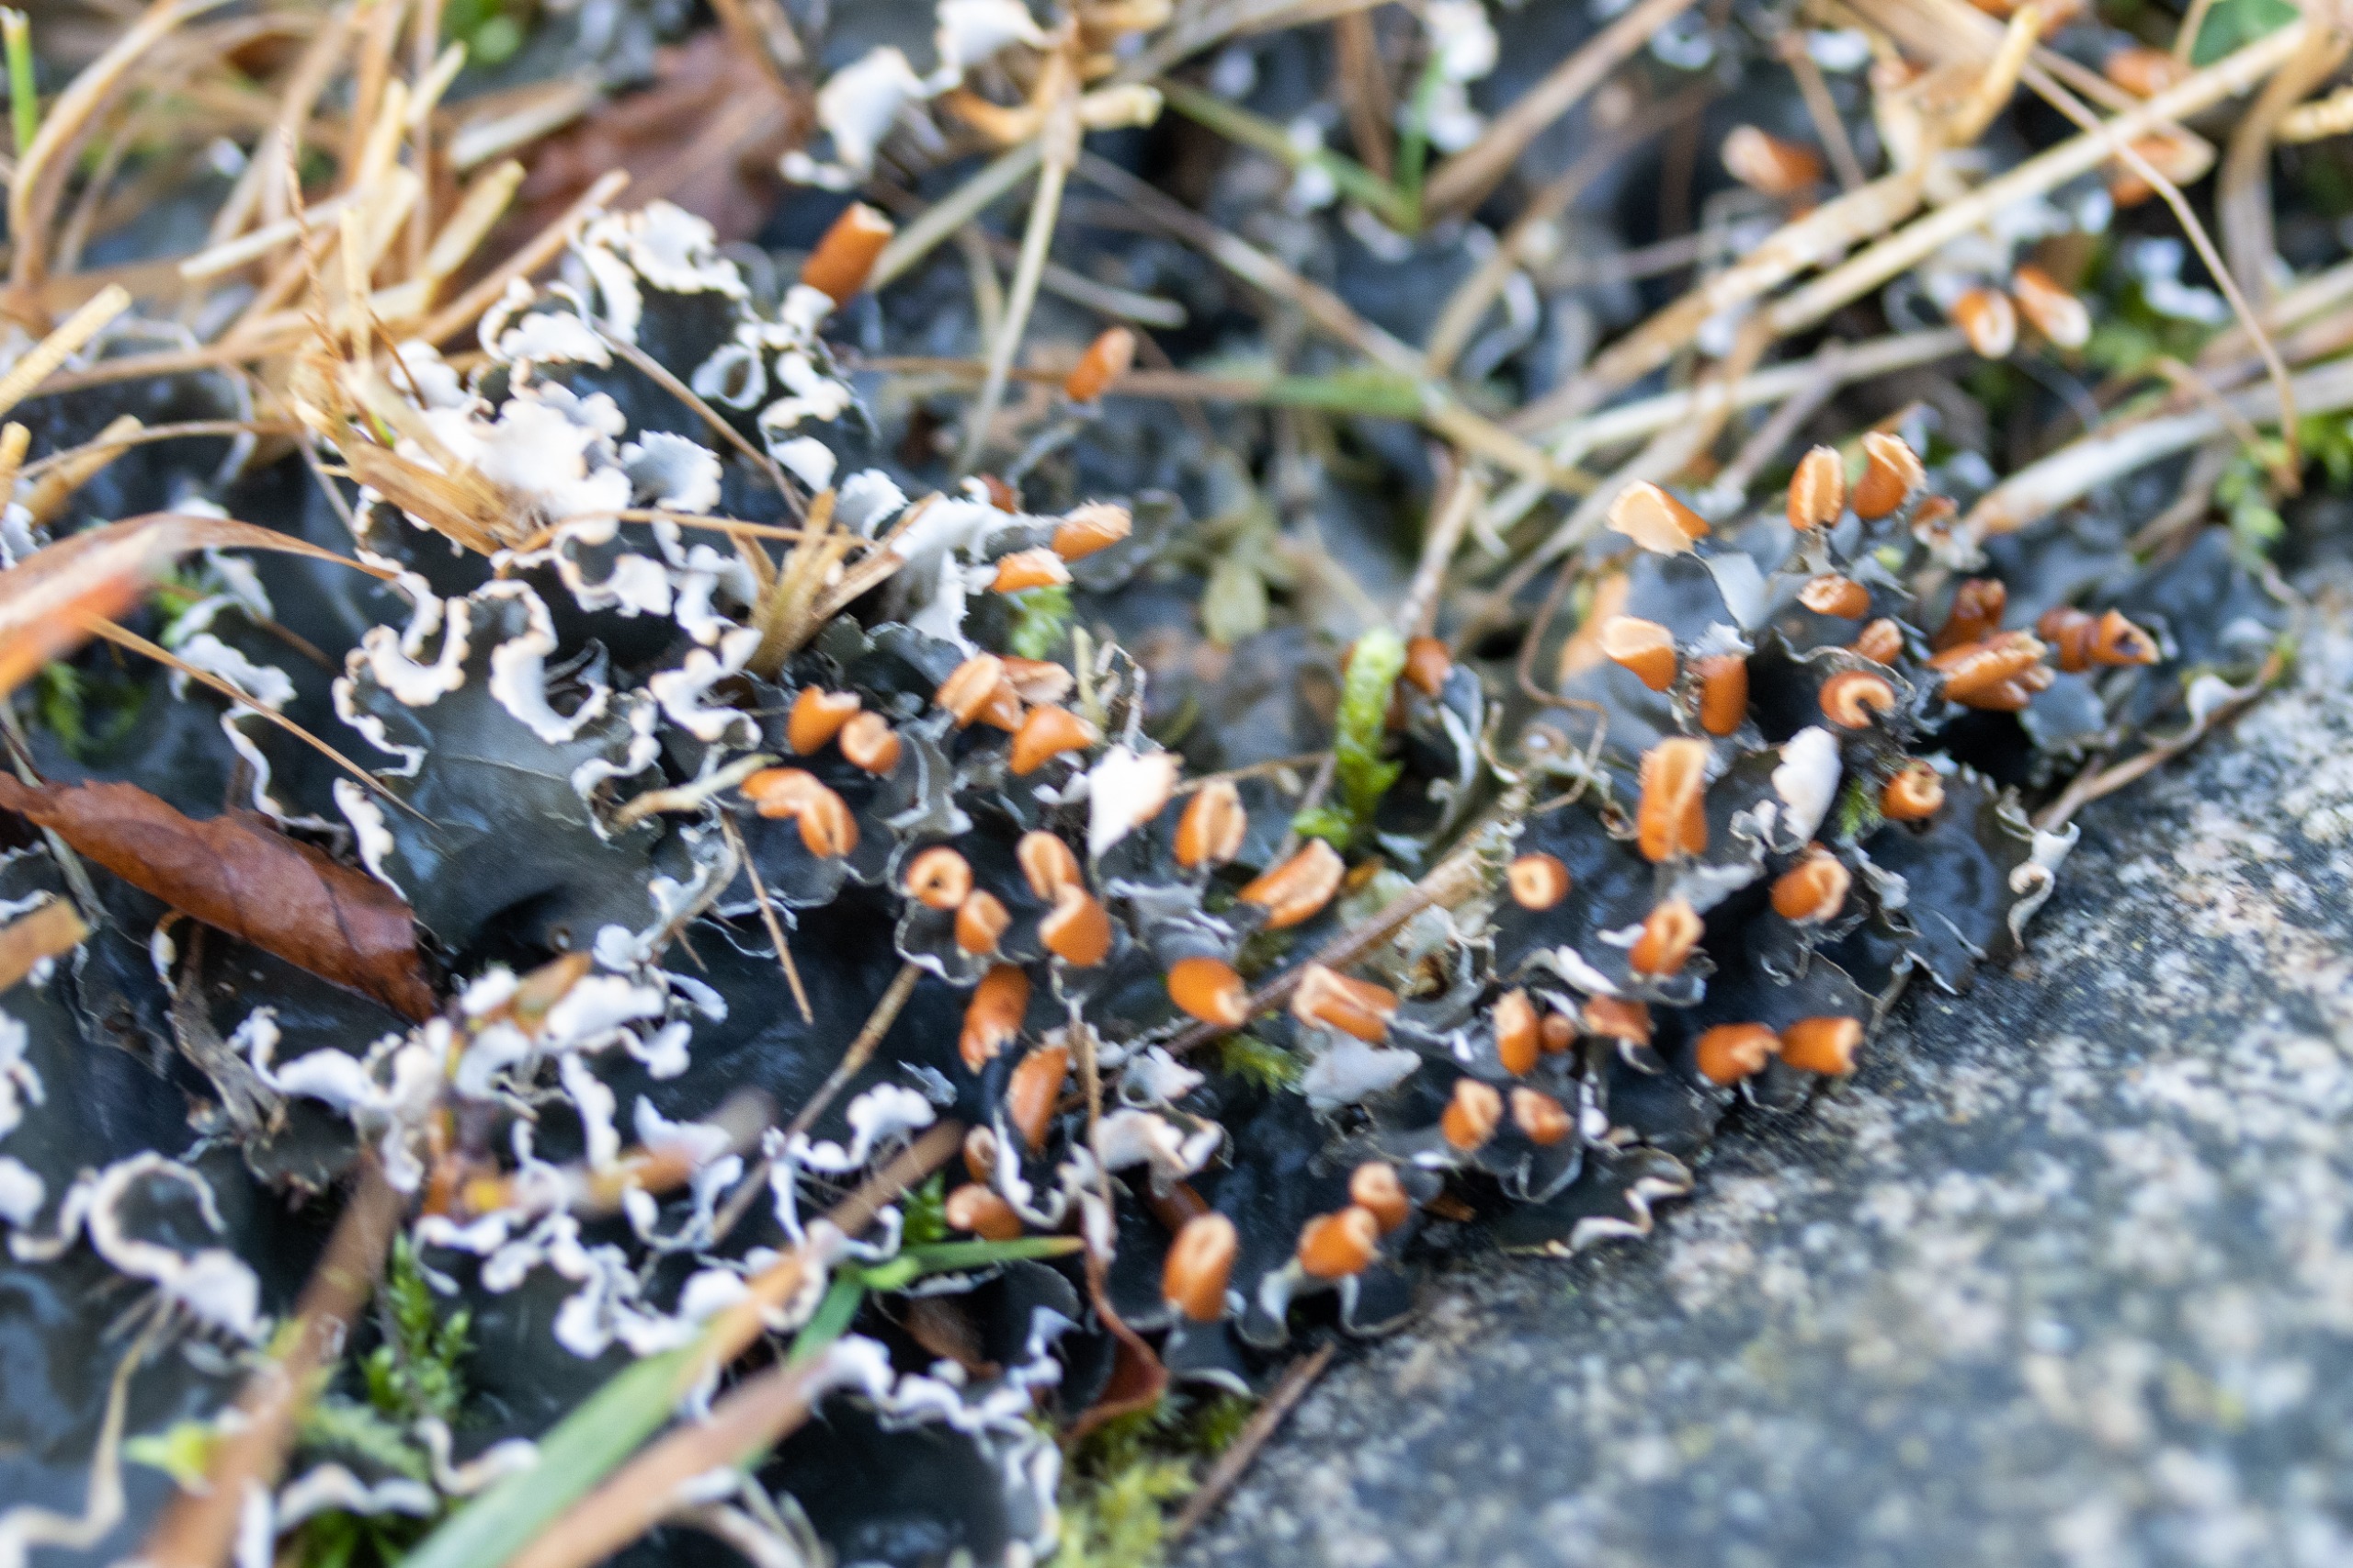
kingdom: Fungi
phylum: Ascomycota
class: Lecanoromycetes
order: Peltigerales
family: Peltigeraceae
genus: Peltigera
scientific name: Peltigera hymenina
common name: Hinde-skjoldlav
